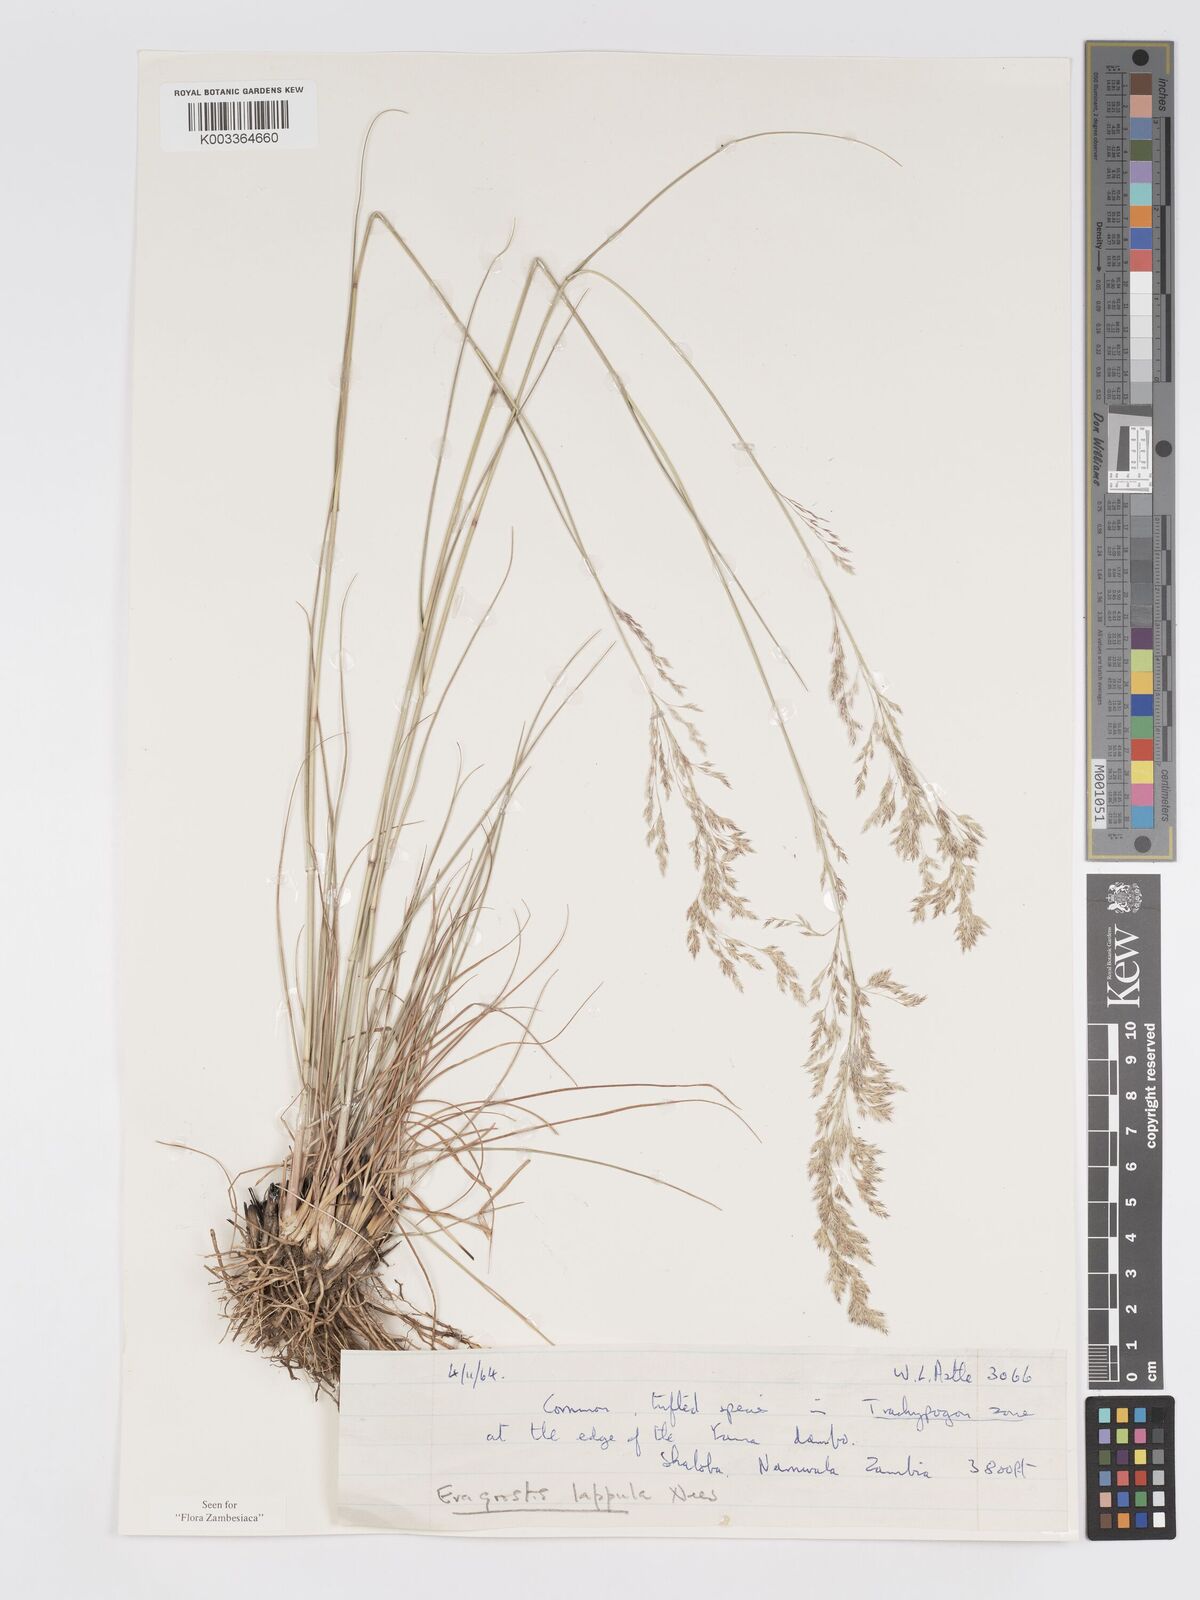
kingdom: Plantae
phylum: Tracheophyta
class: Liliopsida
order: Poales
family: Poaceae
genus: Eragrostis
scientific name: Eragrostis lappula
